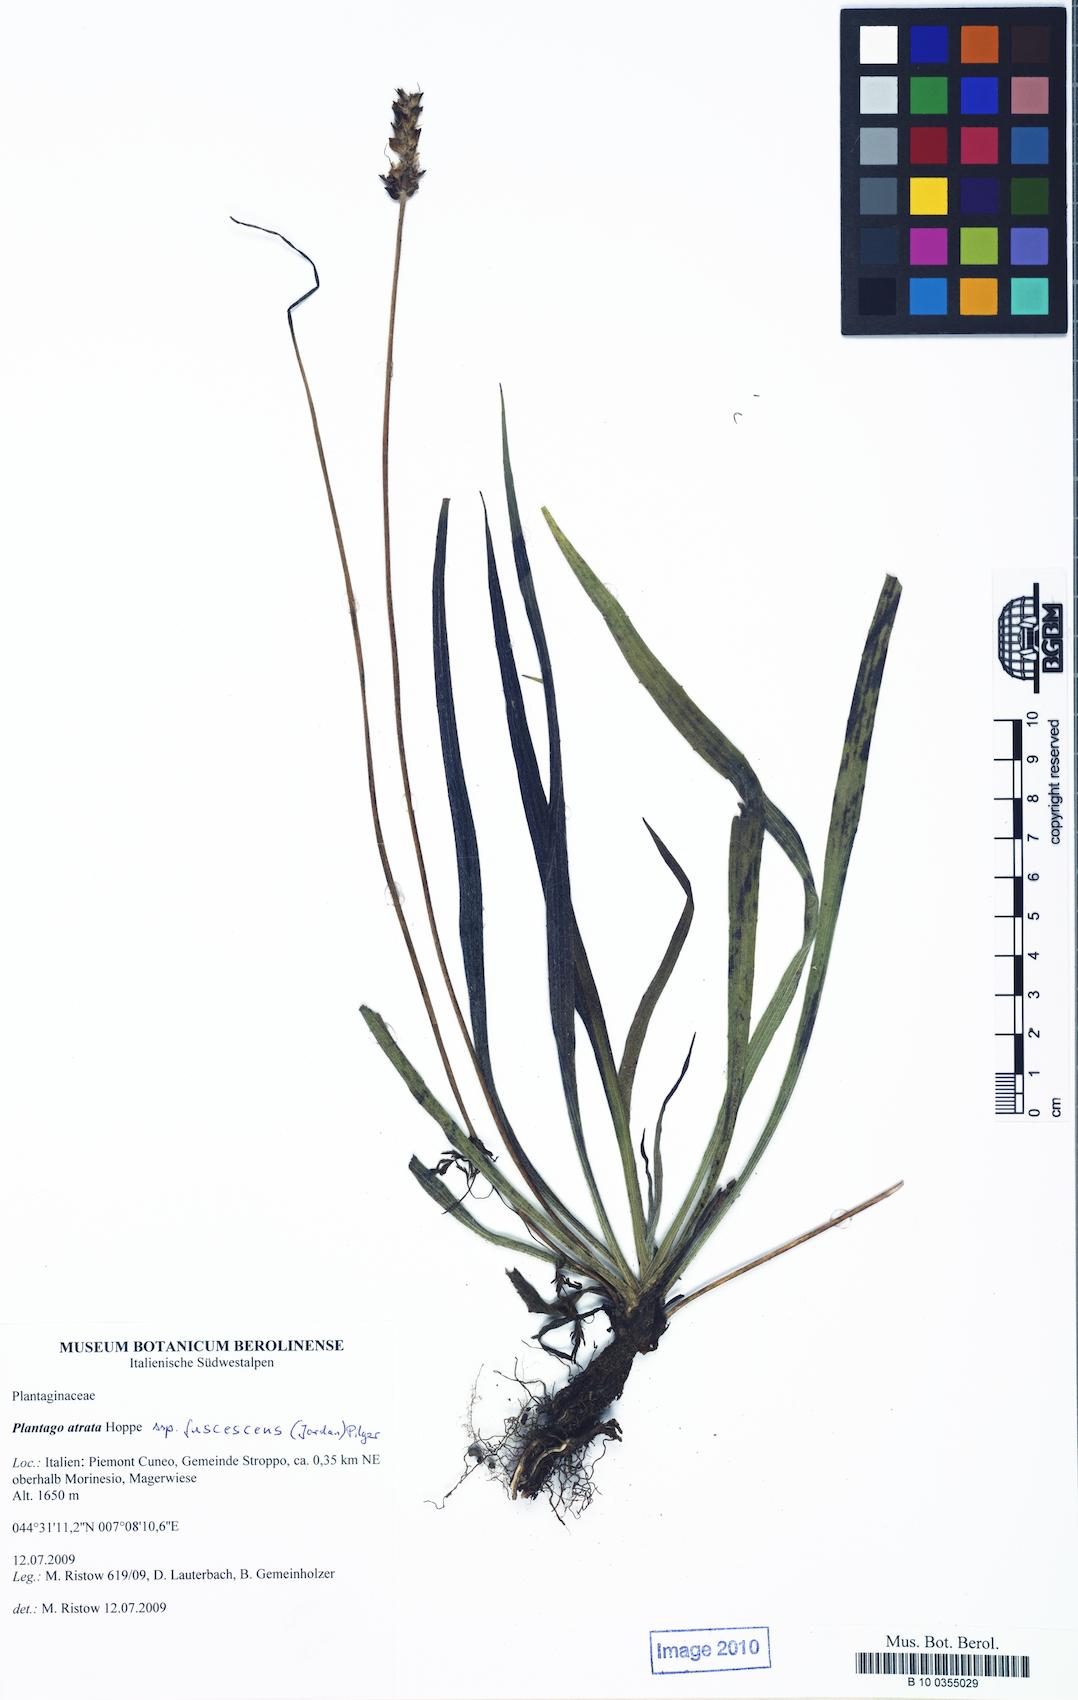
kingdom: Plantae
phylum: Tracheophyta
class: Magnoliopsida
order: Lamiales
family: Plantaginaceae
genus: Plantago
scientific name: Plantago atrata
